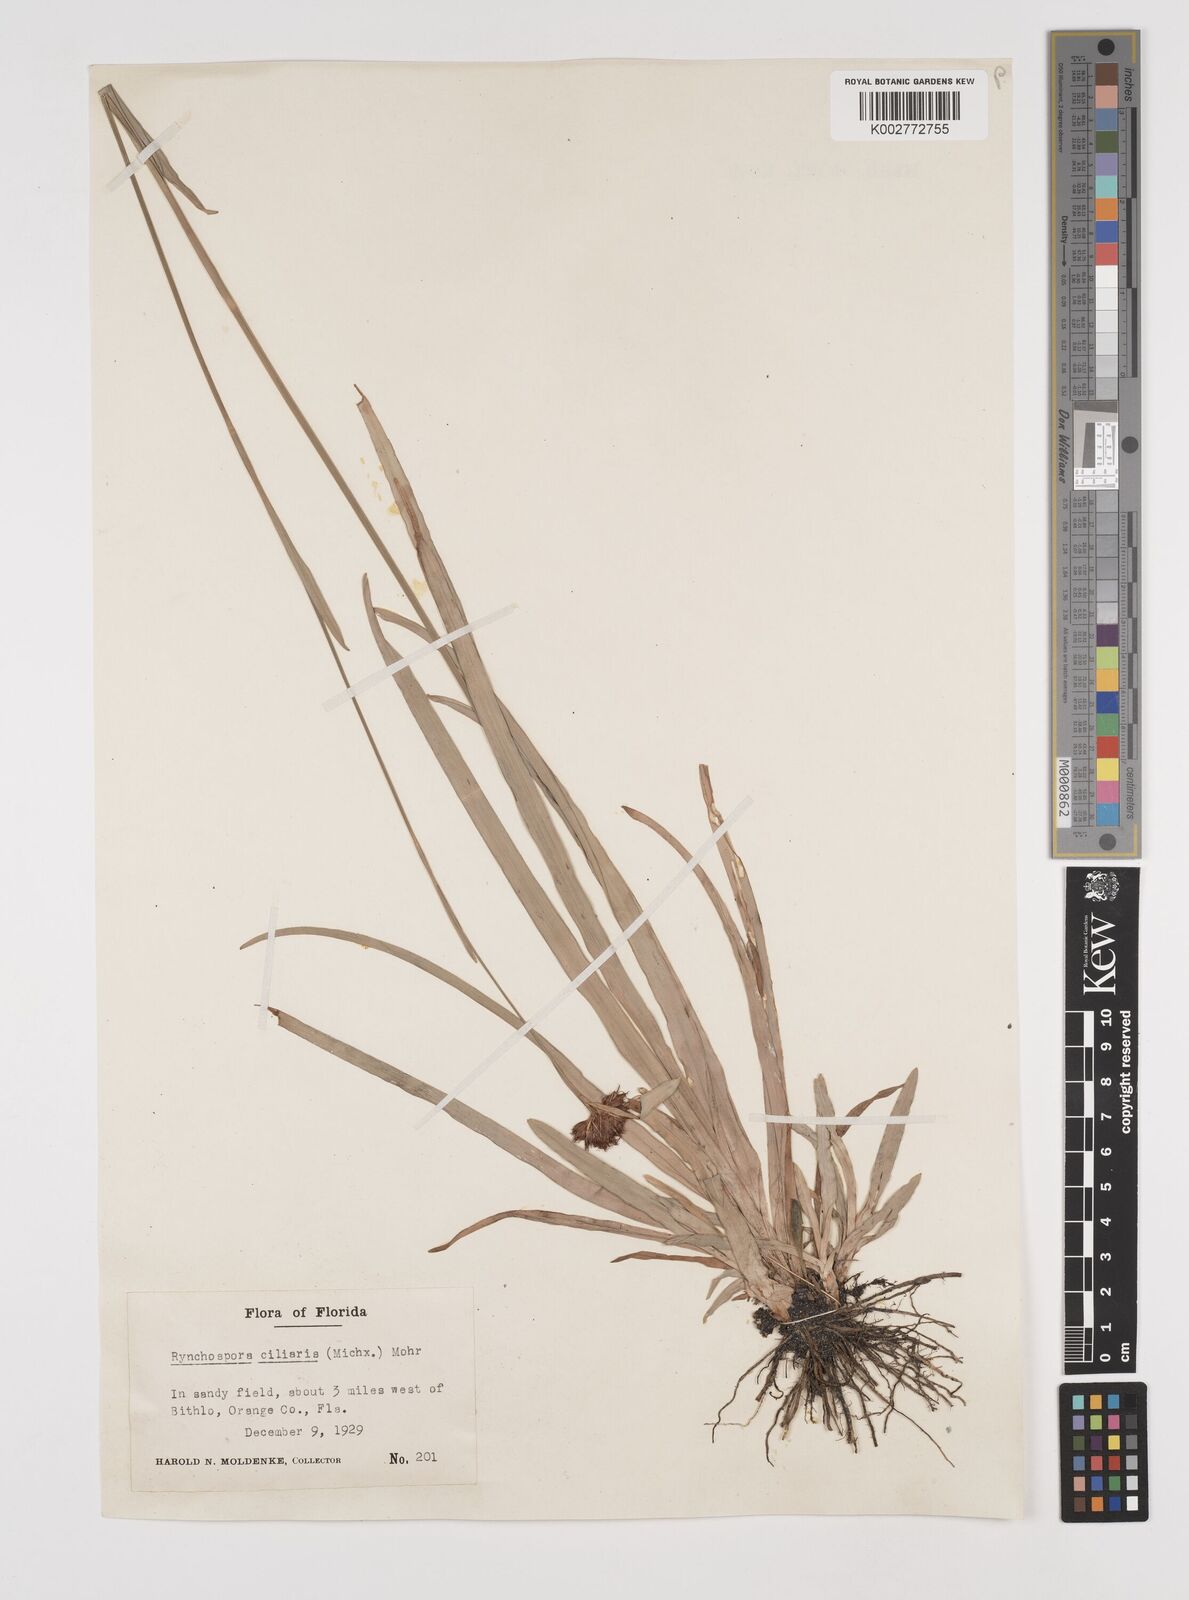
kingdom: Plantae
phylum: Tracheophyta
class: Liliopsida
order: Poales
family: Cyperaceae
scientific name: Cyperaceae
